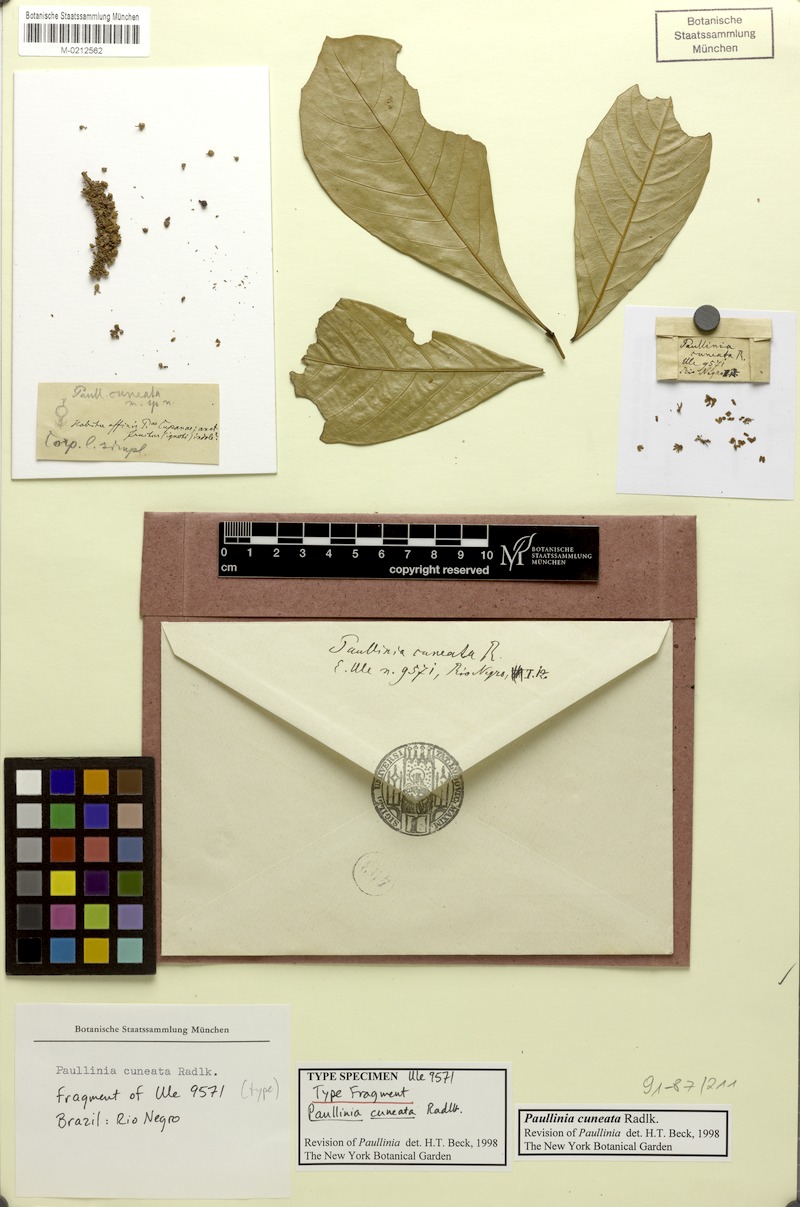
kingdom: Plantae
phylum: Tracheophyta
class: Magnoliopsida
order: Sapindales
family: Sapindaceae
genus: Paullinia
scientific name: Paullinia cuneata
